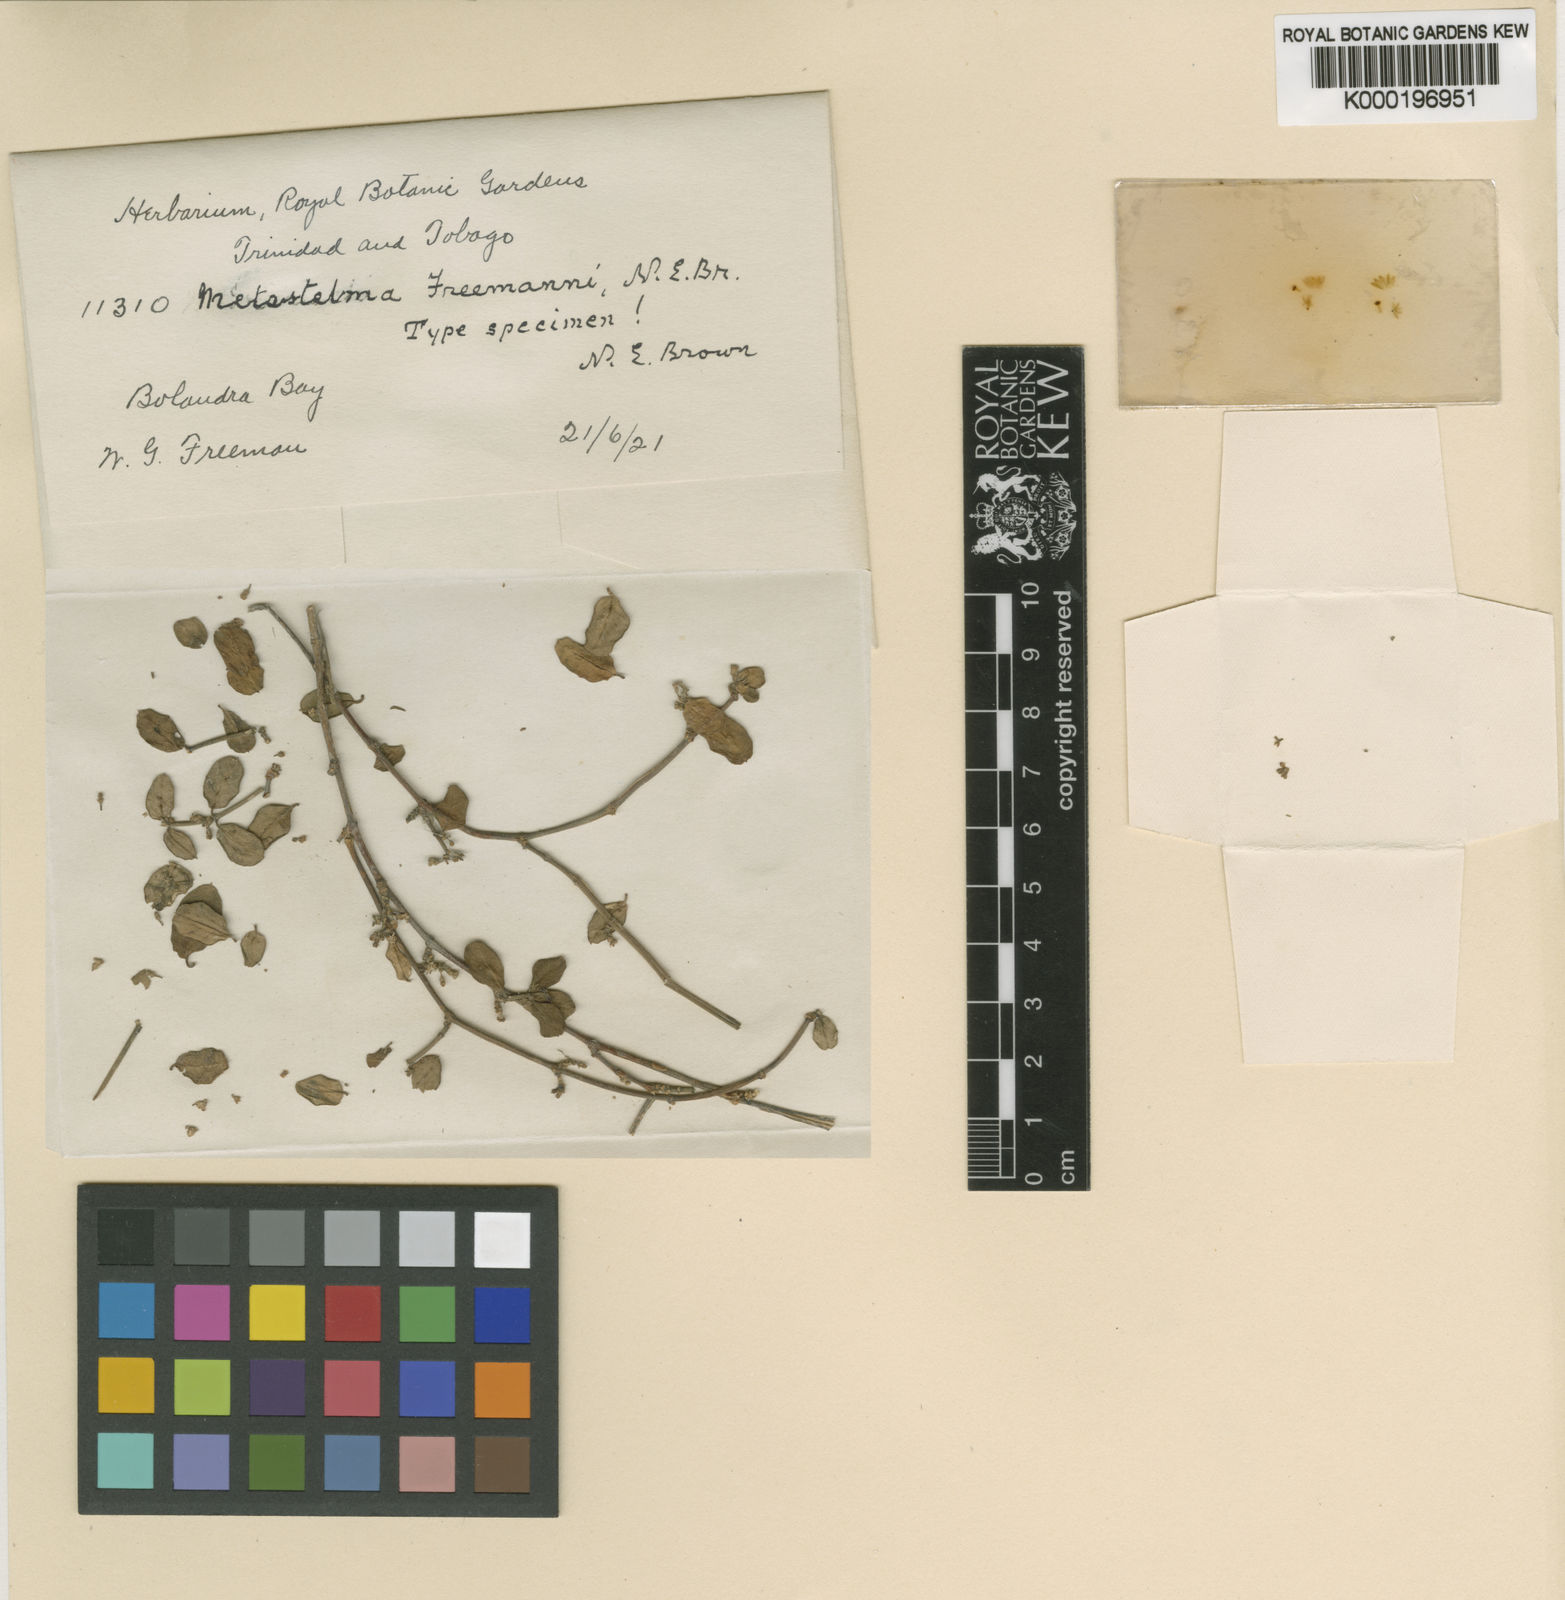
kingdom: Plantae
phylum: Tracheophyta
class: Magnoliopsida
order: Gentianales
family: Apocynaceae
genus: Metastelma
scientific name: Metastelma freemanii
